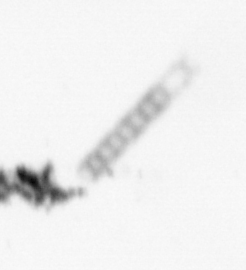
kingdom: Chromista
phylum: Ochrophyta
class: Bacillariophyceae
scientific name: Bacillariophyceae
